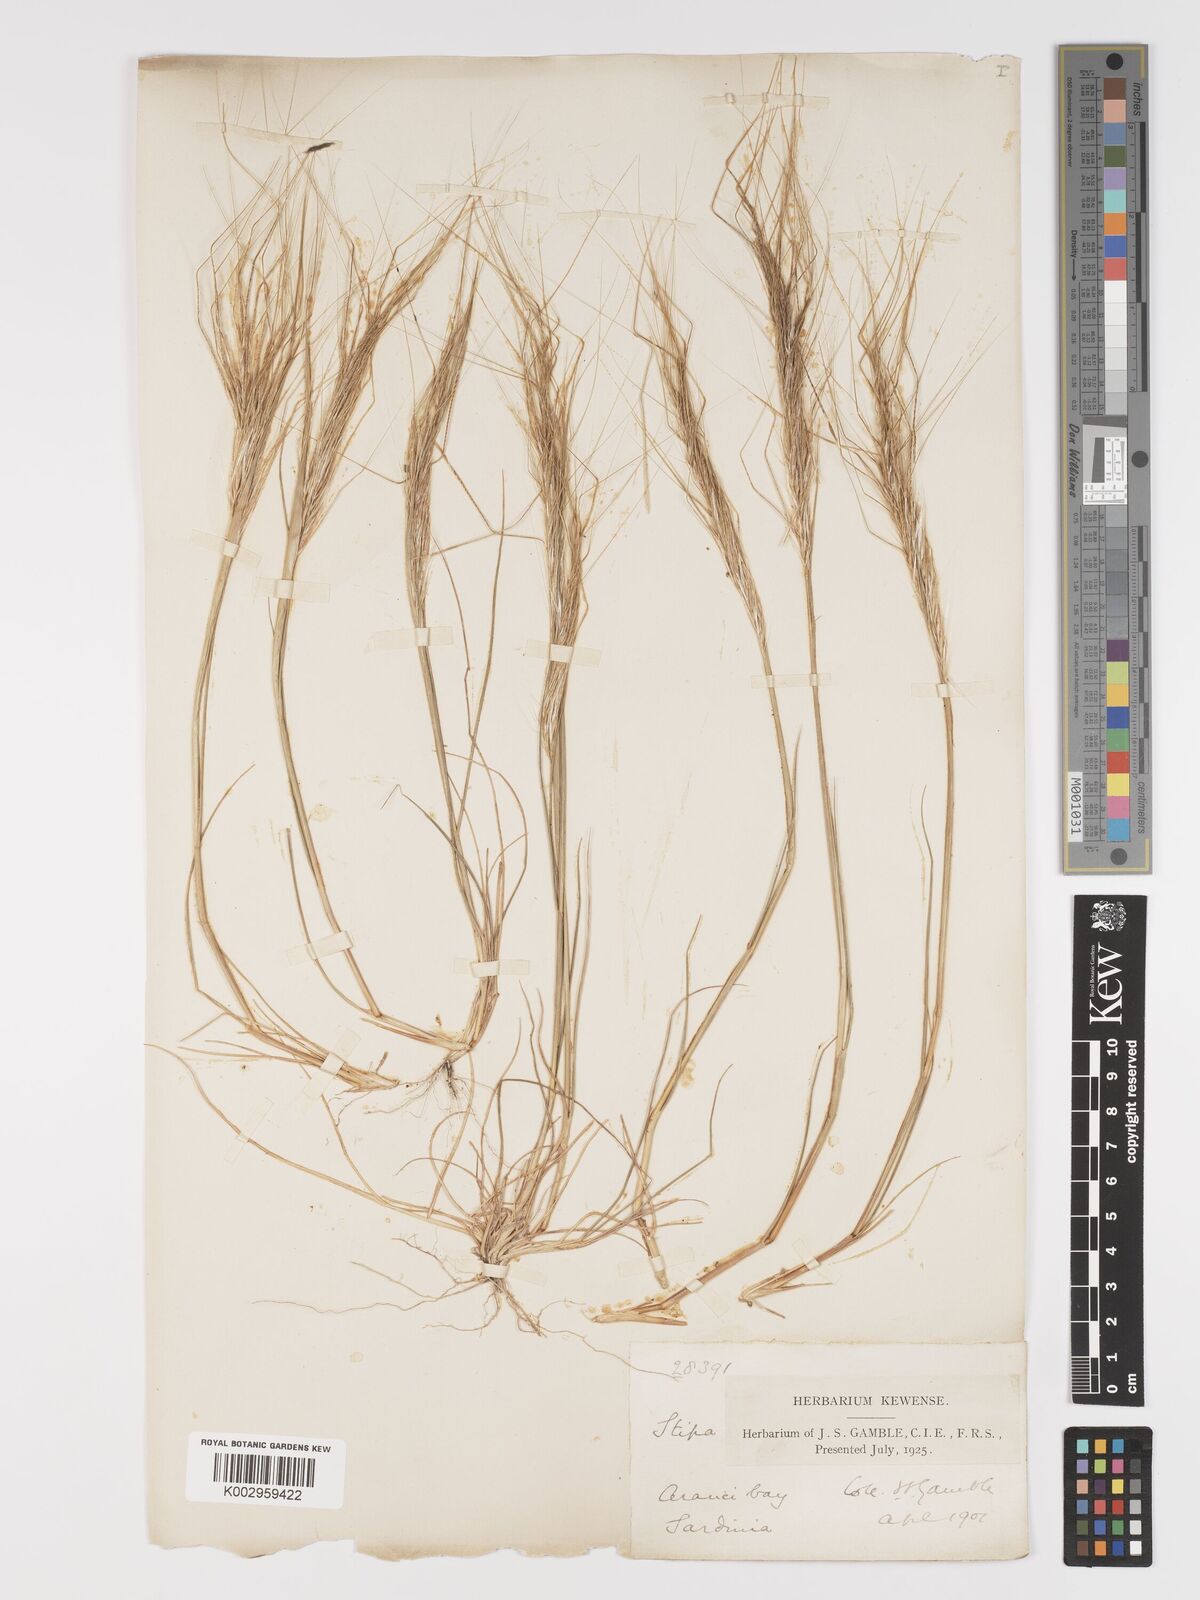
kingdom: Plantae
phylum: Tracheophyta
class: Liliopsida
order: Poales
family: Poaceae
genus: Stipa
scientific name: Stipa
